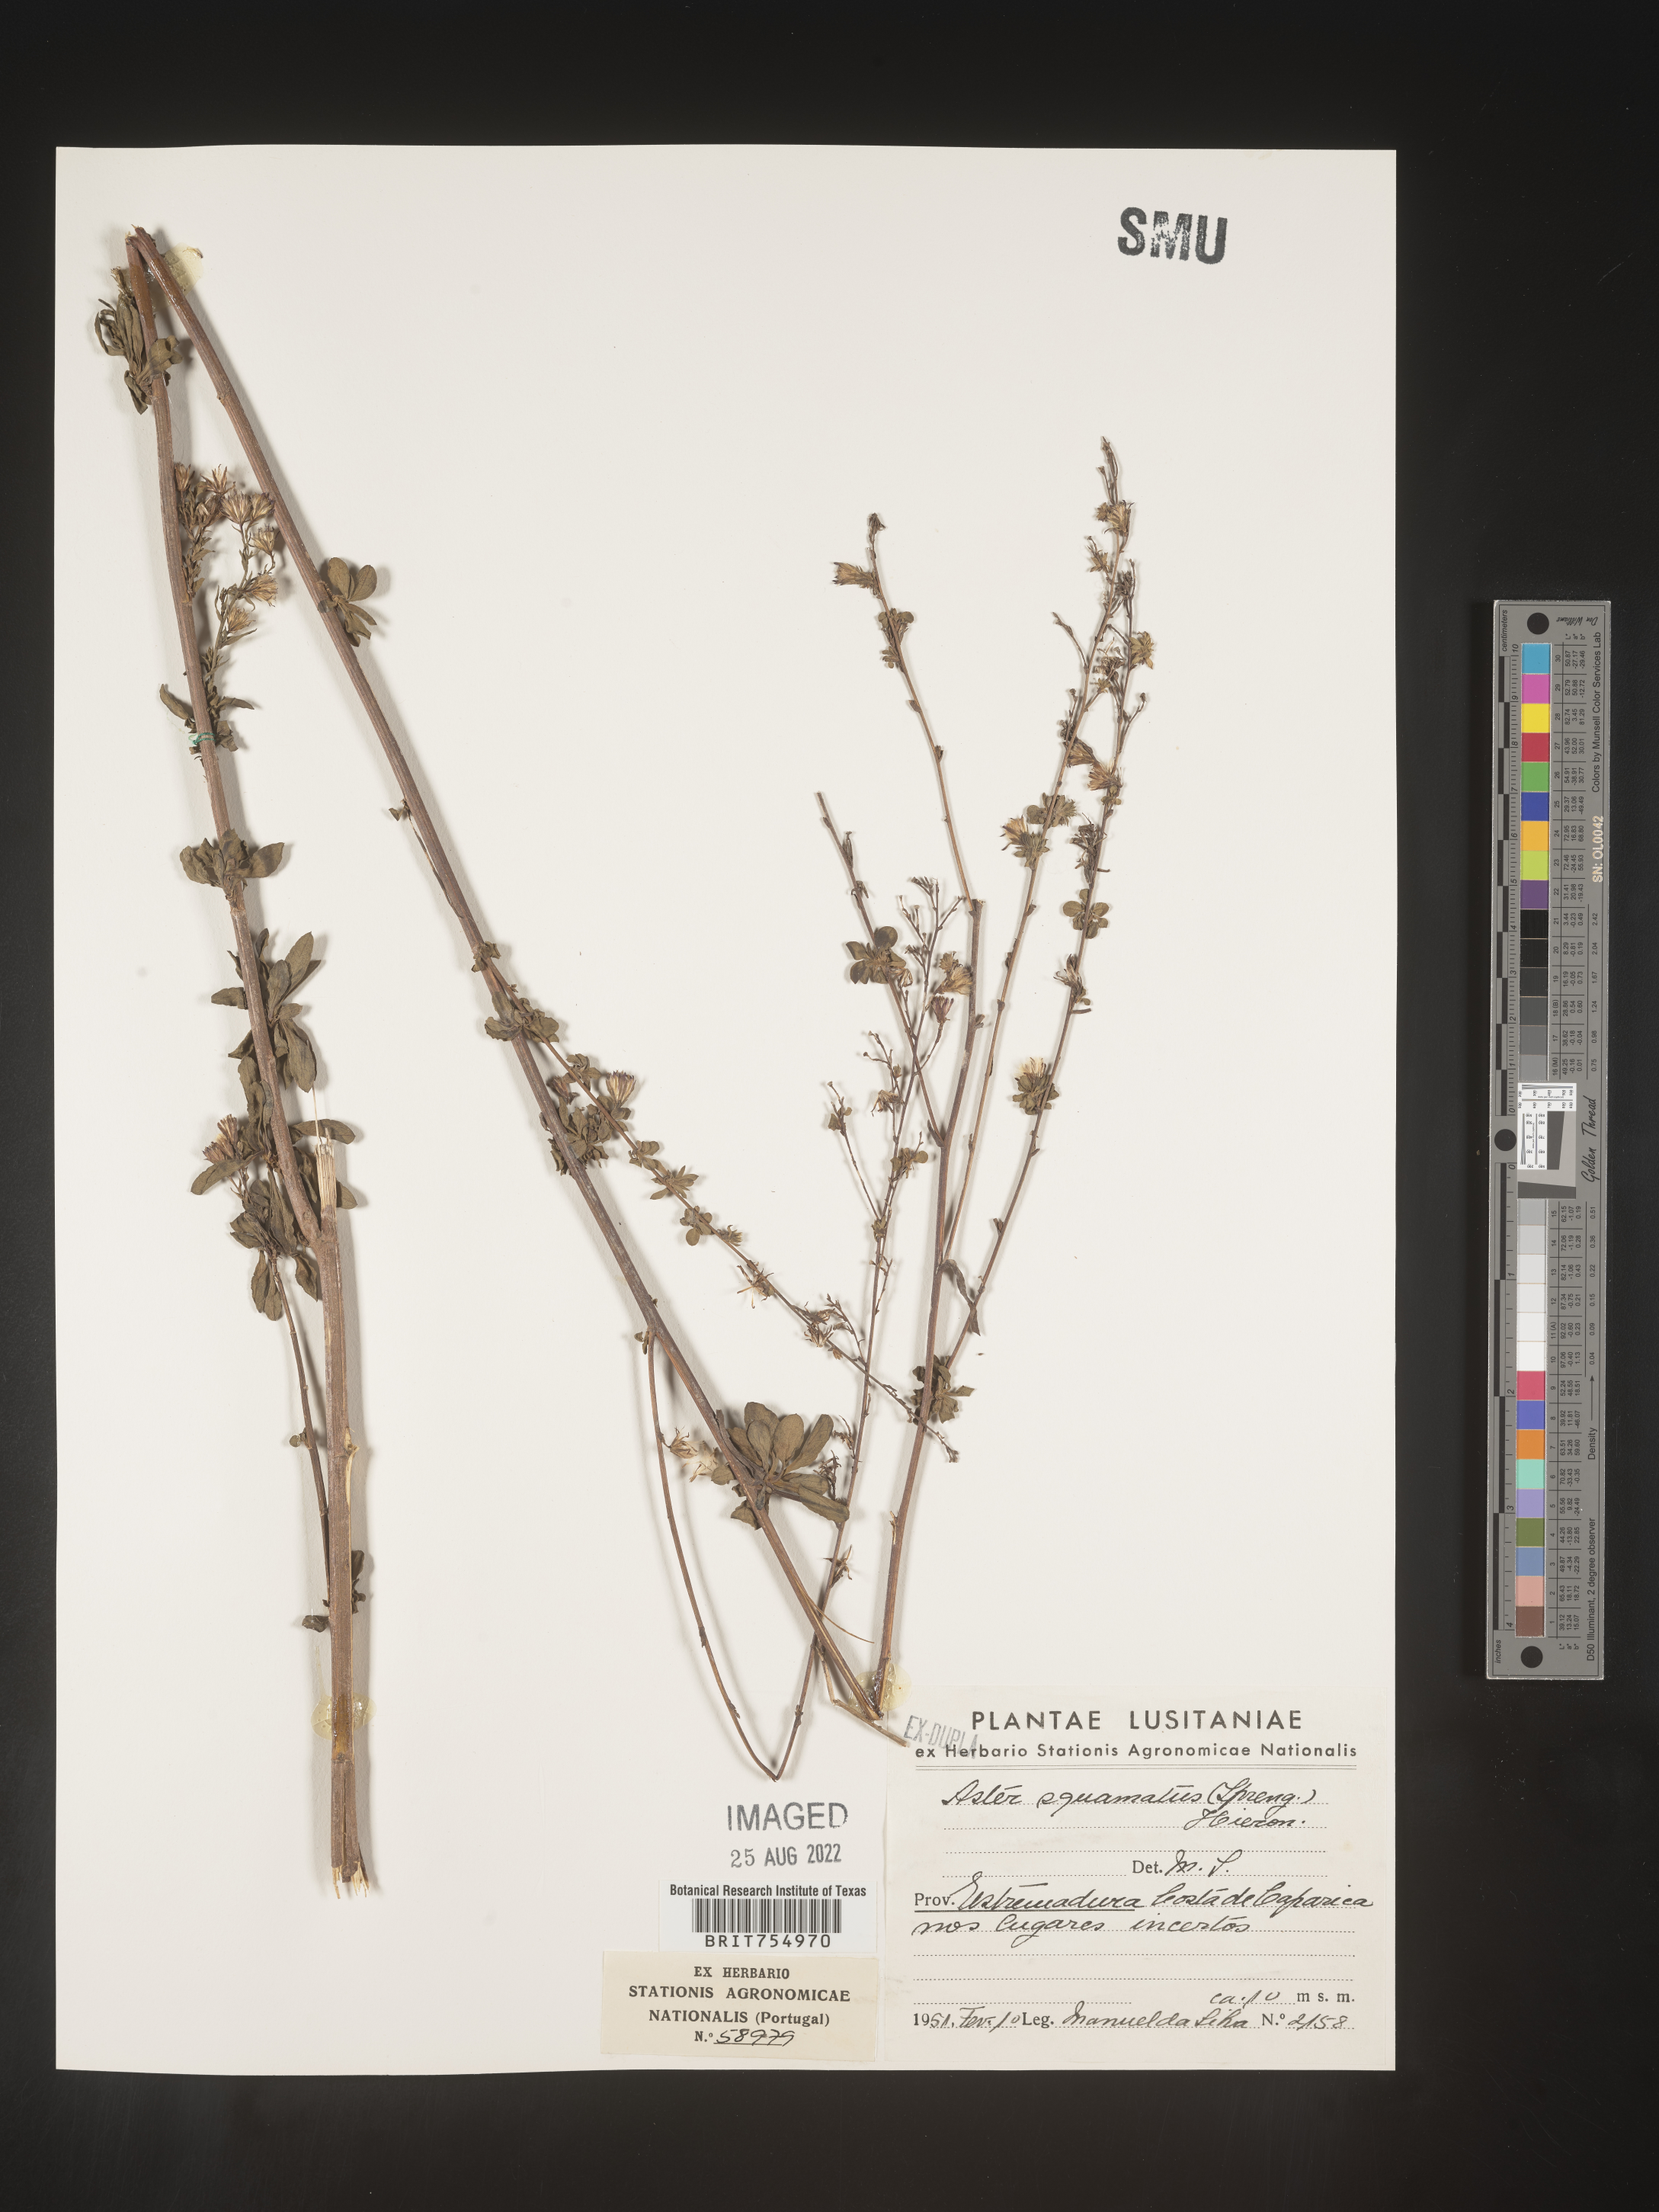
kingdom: Plantae
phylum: Tracheophyta
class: Magnoliopsida
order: Asterales
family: Asteraceae
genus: Symphyotrichum
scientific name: Symphyotrichum
